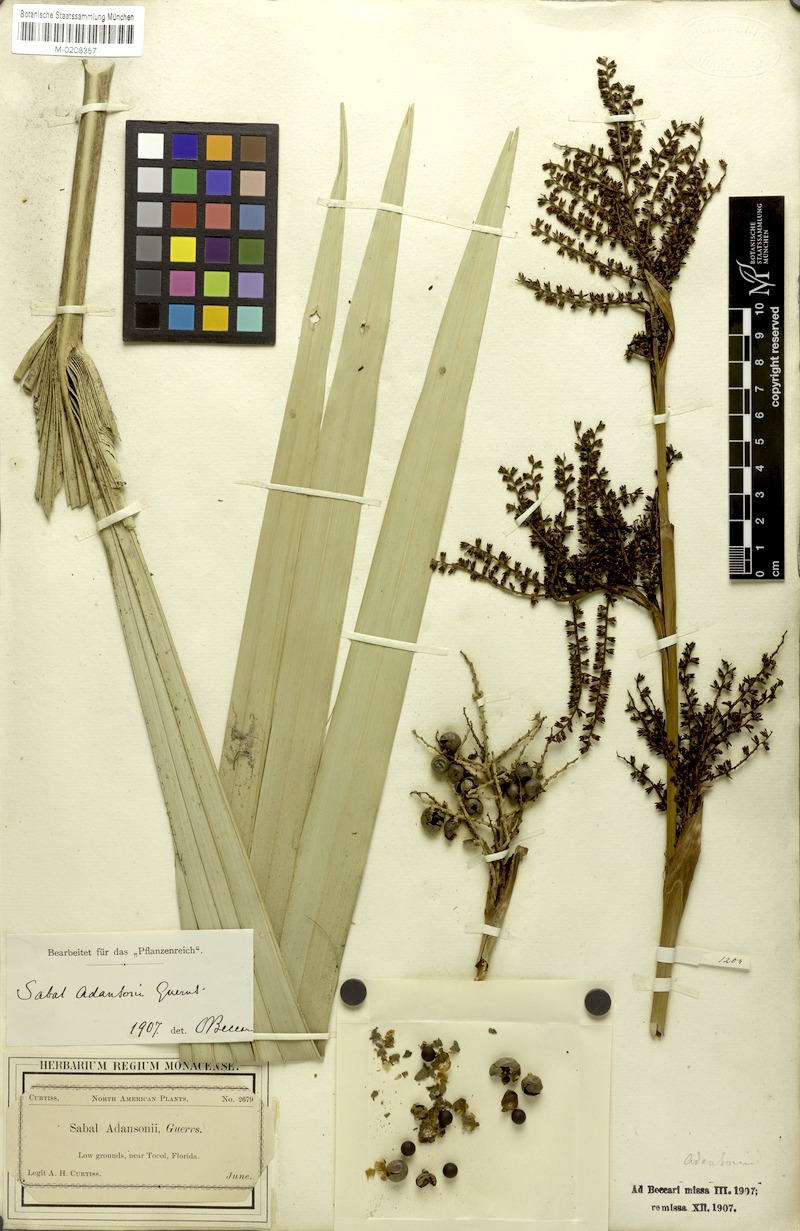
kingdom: Plantae
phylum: Tracheophyta
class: Liliopsida
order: Arecales
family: Arecaceae
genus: Sabal
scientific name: Sabal minor
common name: Dwarf palmetto
